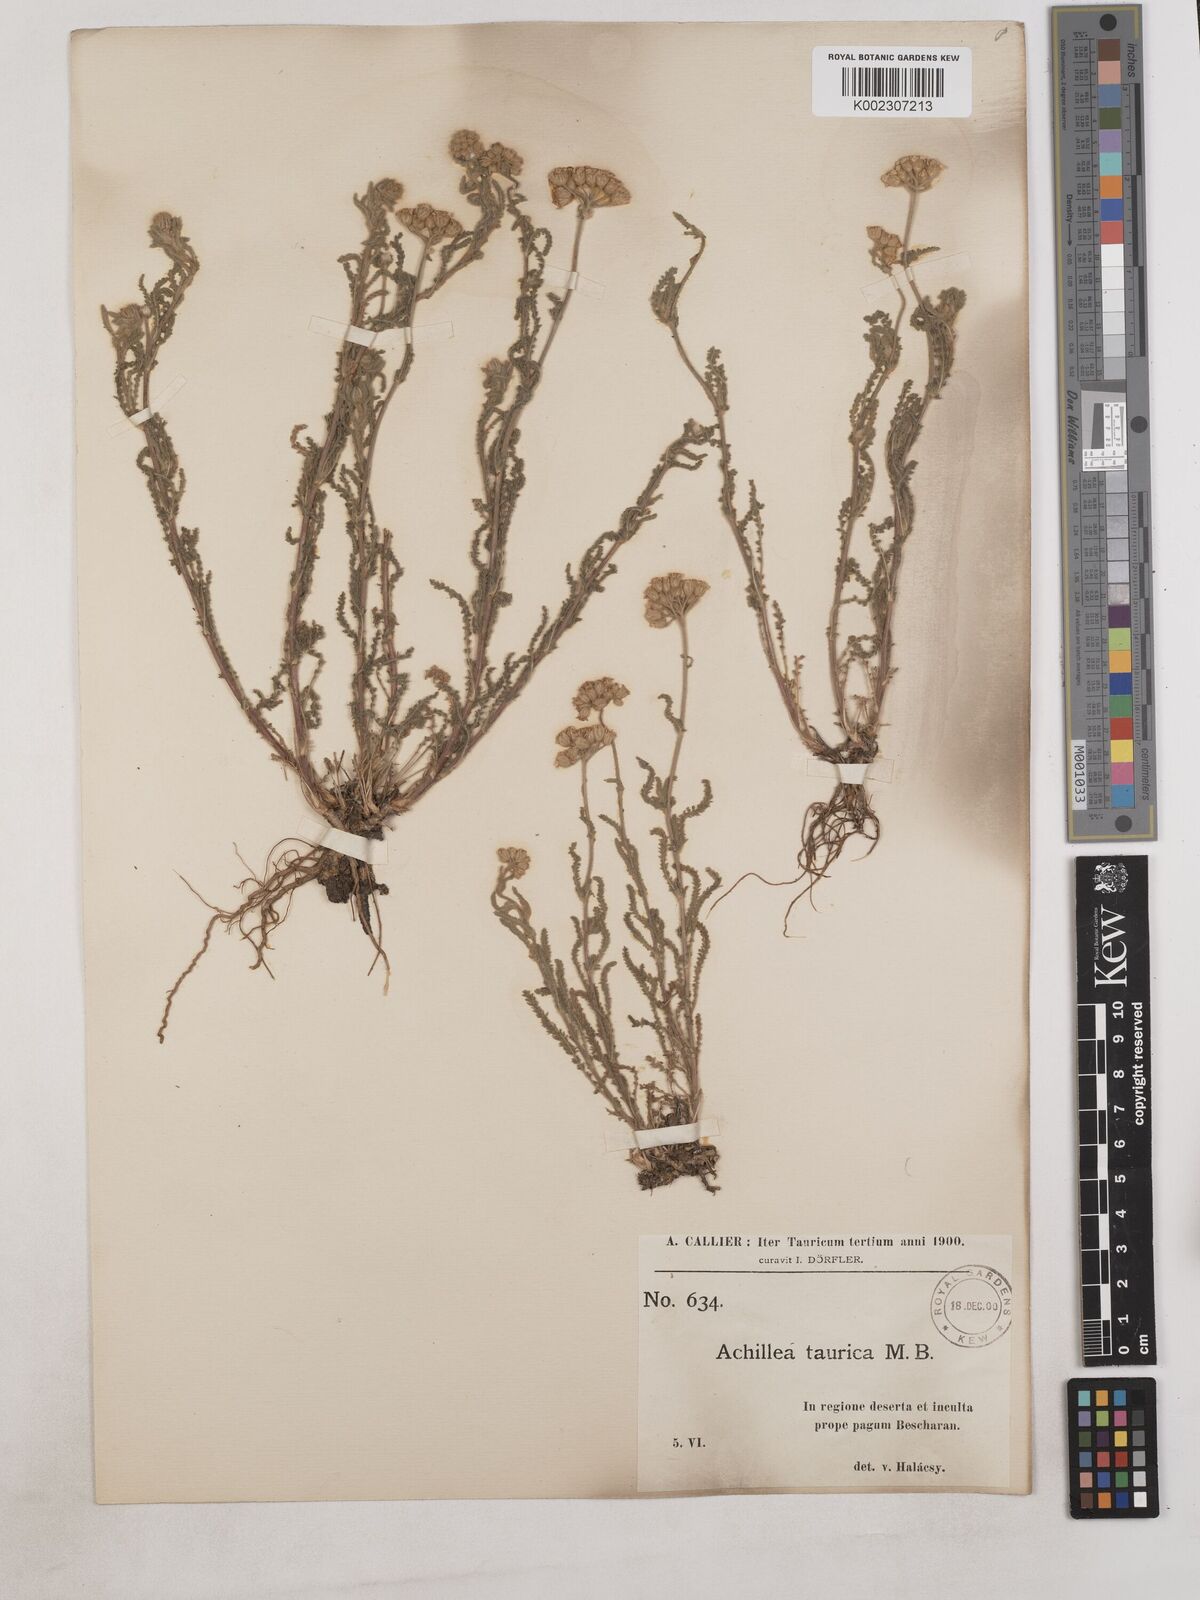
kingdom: Plantae
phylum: Tracheophyta
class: Magnoliopsida
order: Asterales
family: Asteraceae
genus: Achillea
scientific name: Achillea leptophylla
